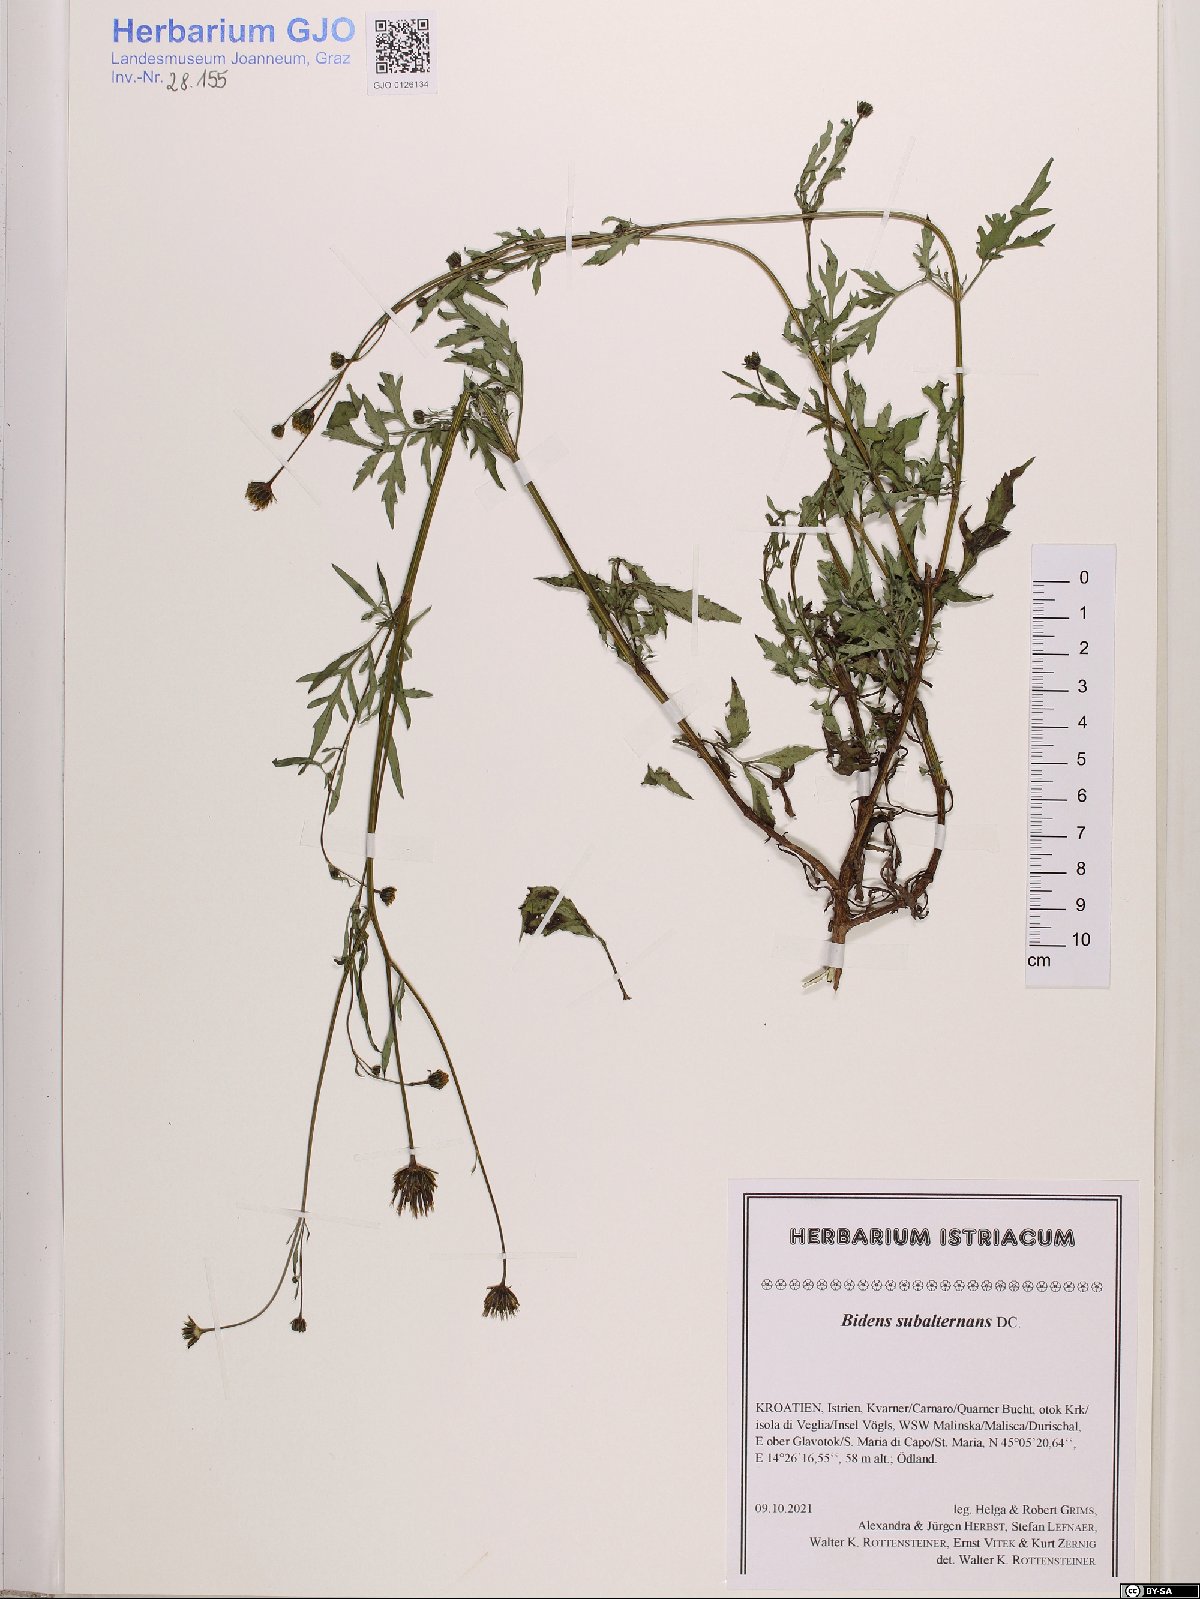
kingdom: Plantae
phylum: Tracheophyta
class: Magnoliopsida
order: Asterales
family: Asteraceae
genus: Bidens
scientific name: Bidens subalternans
